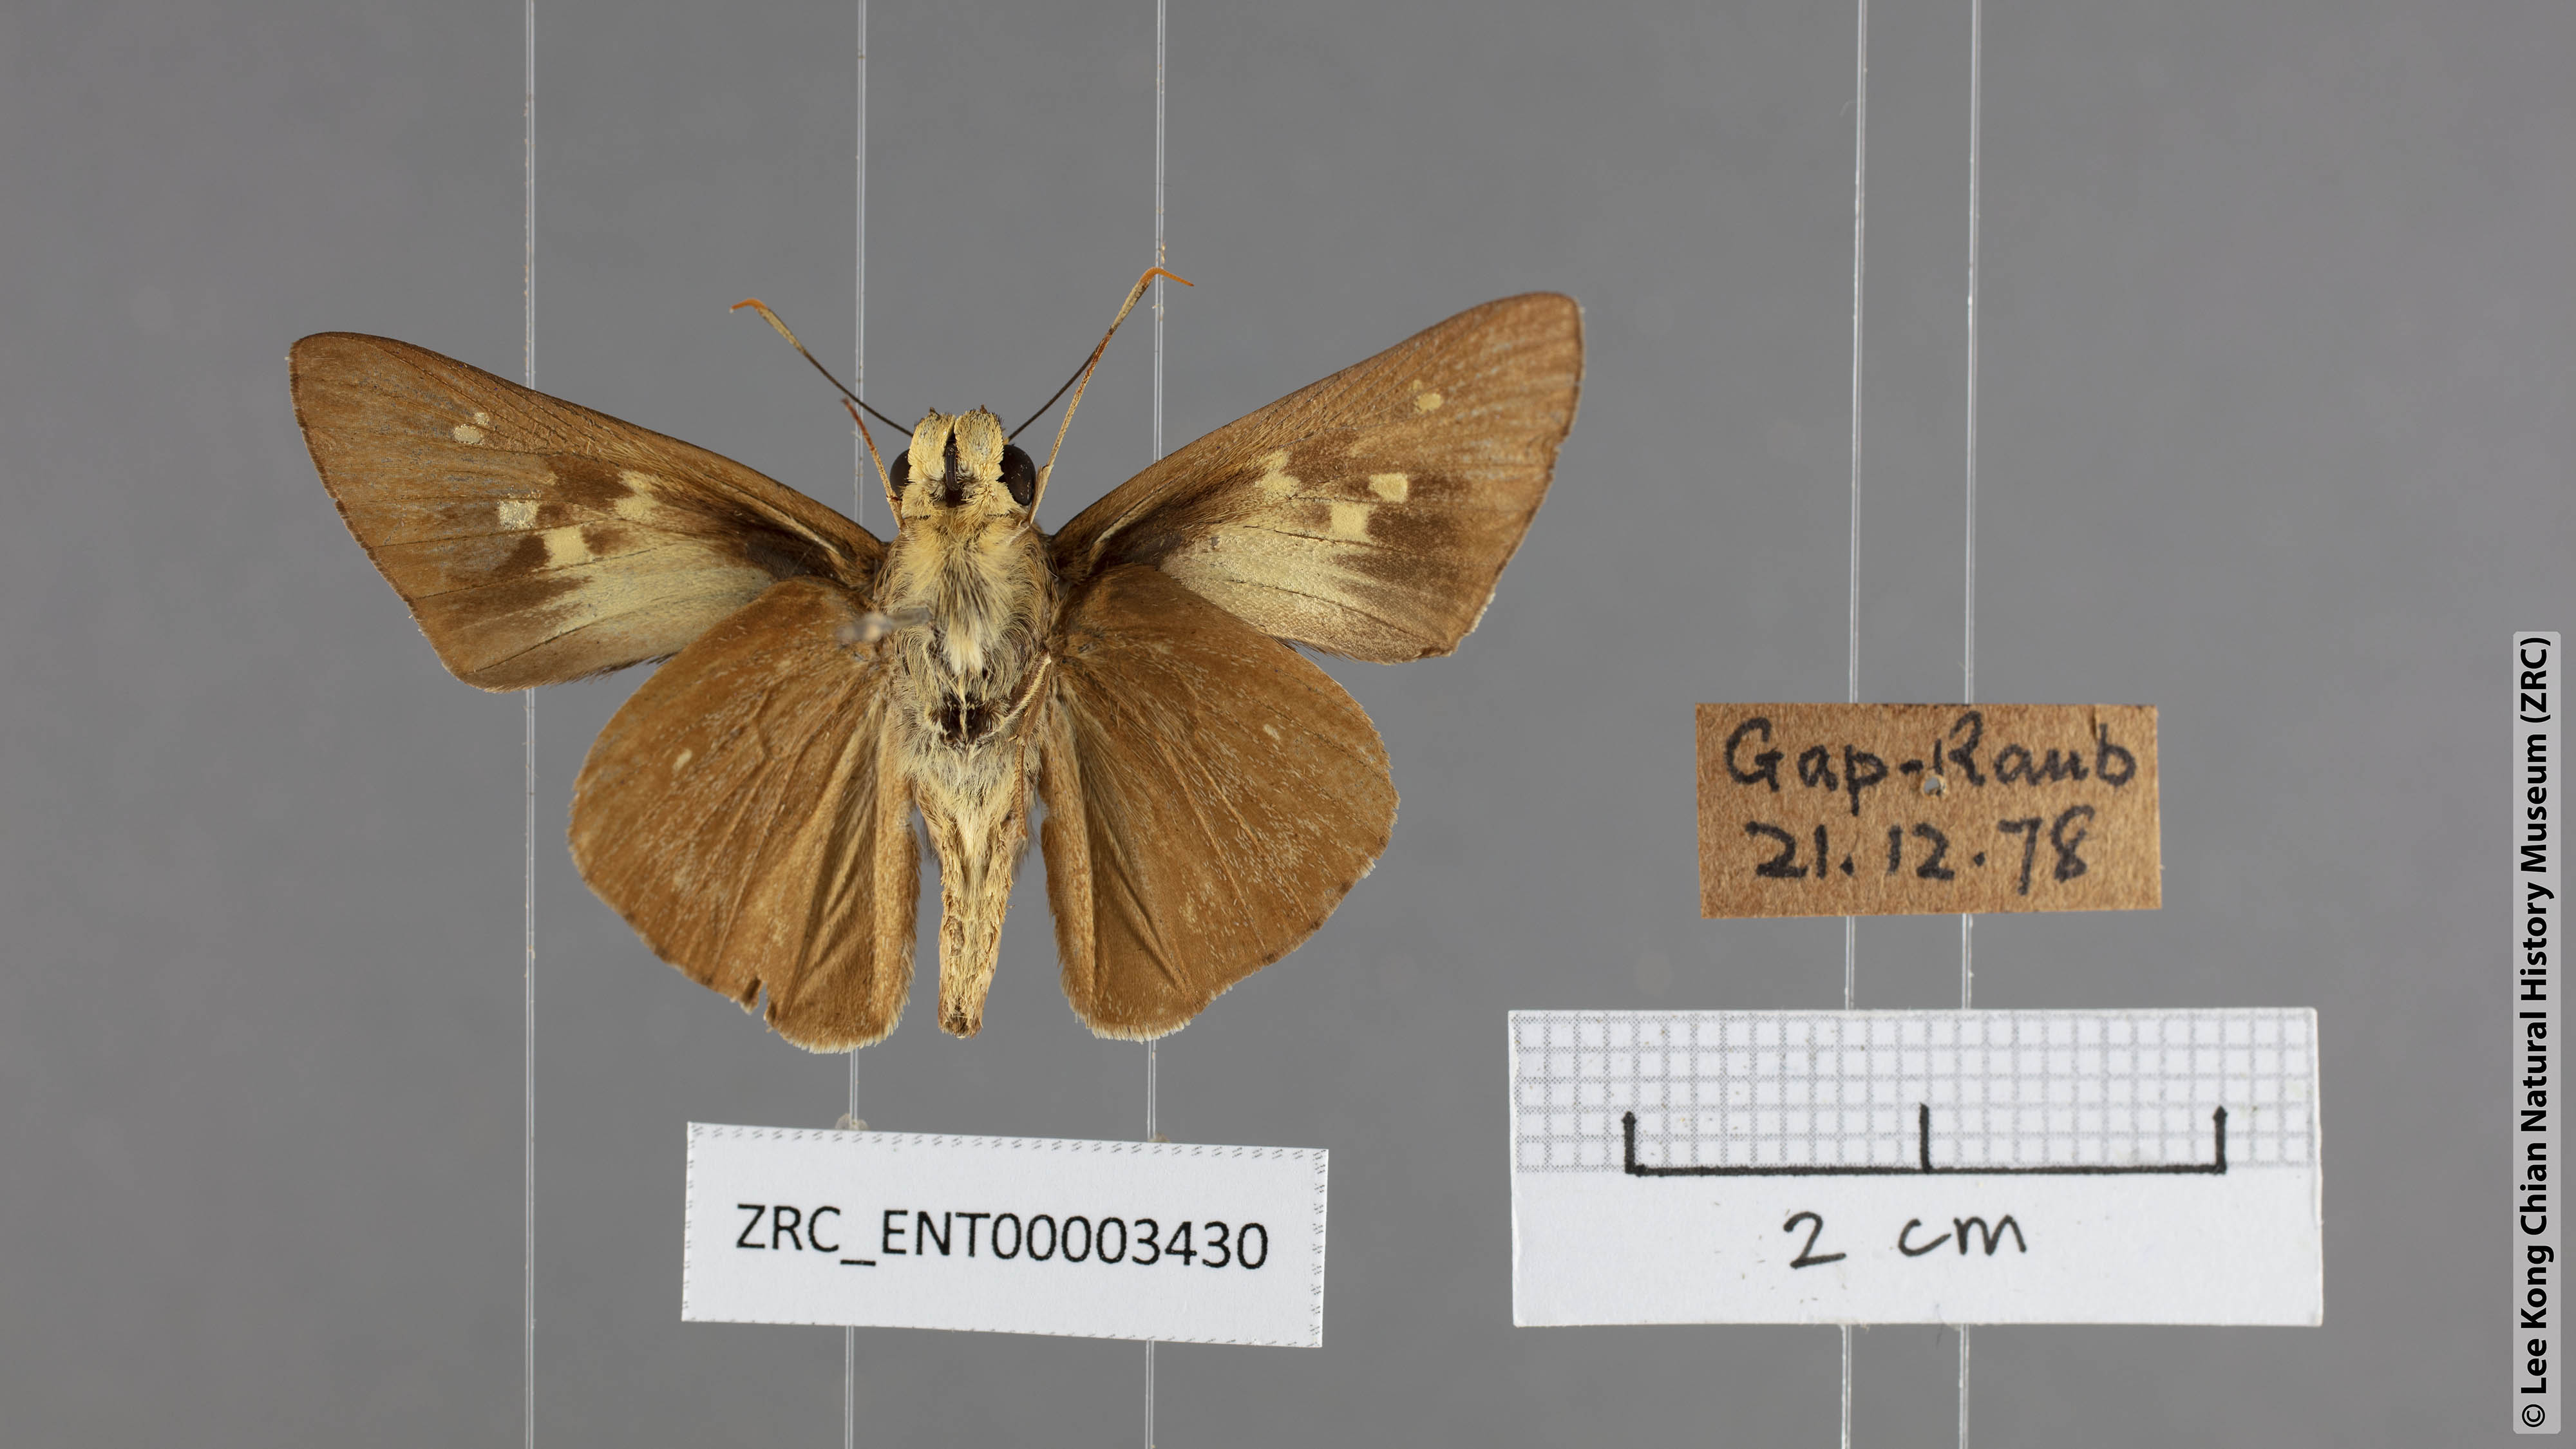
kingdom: Animalia
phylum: Arthropoda
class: Insecta
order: Lepidoptera
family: Hesperiidae
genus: Pithauria
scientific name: Pithauria stramineipennis
